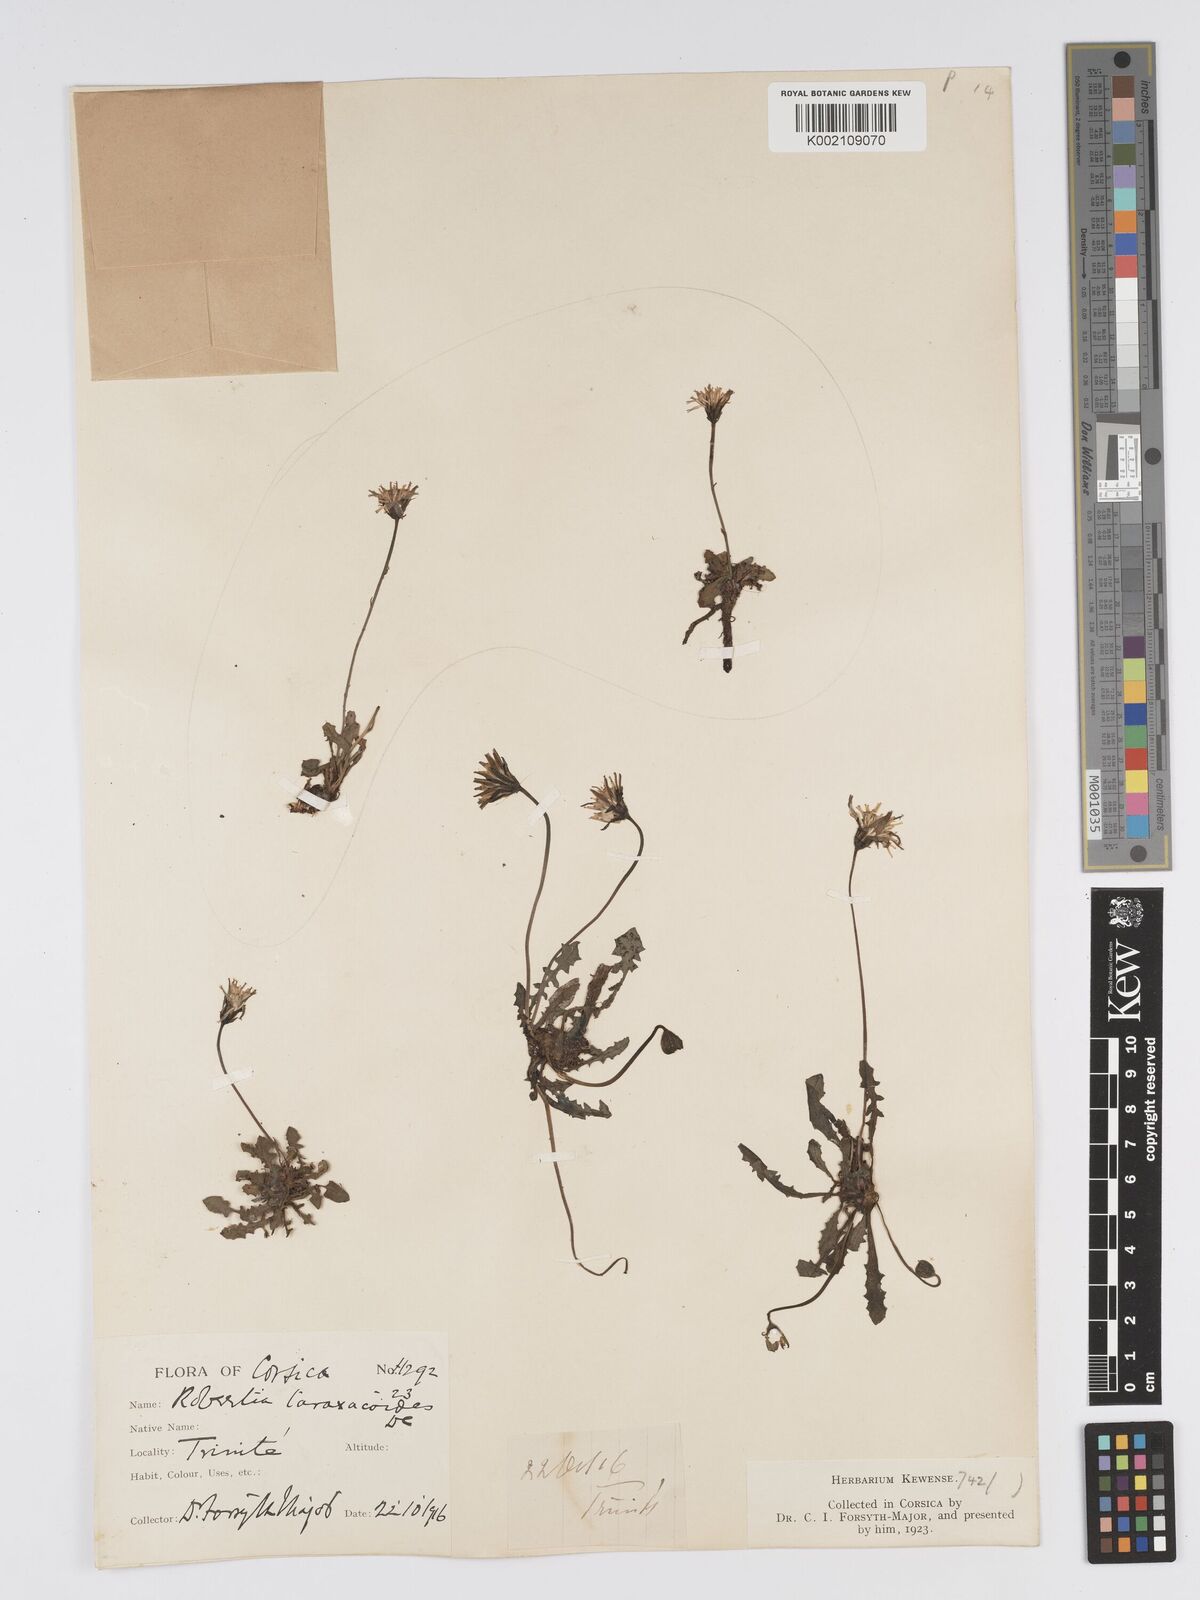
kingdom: Plantae
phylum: Tracheophyta
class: Magnoliopsida
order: Asterales
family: Asteraceae
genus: Crepis
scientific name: Crepis bellidifolia
